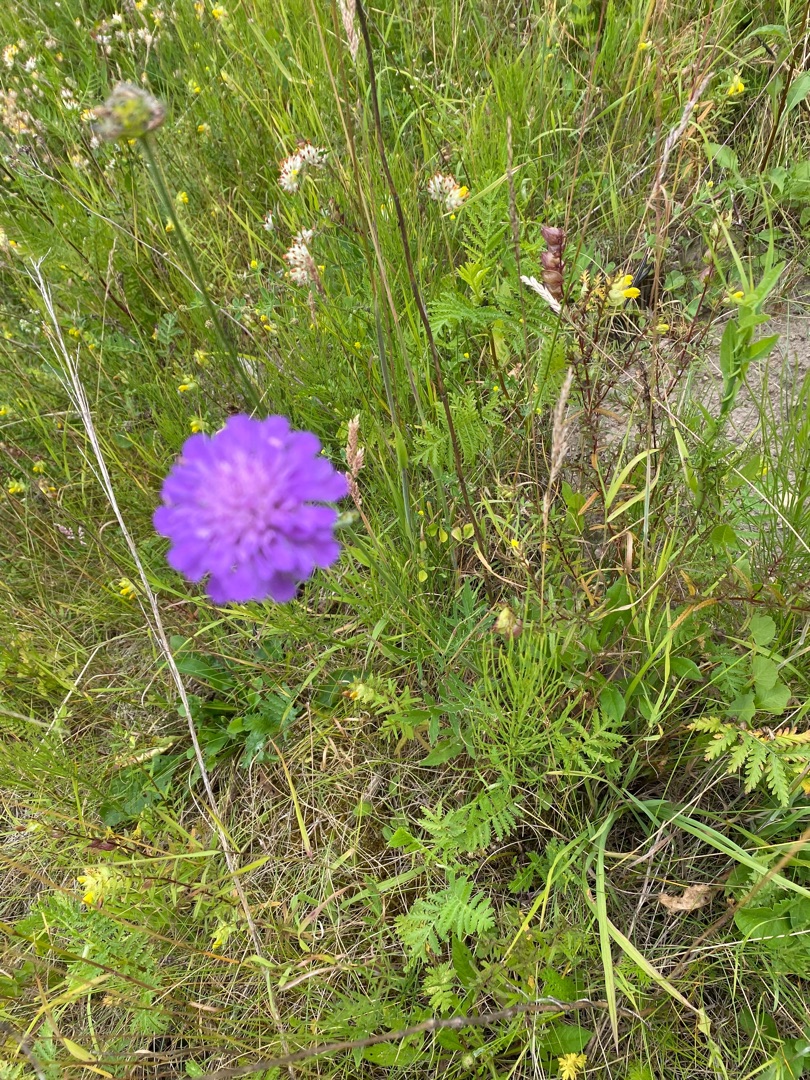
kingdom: Plantae
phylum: Tracheophyta
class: Magnoliopsida
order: Dipsacales
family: Caprifoliaceae
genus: Knautia
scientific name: Knautia arvensis
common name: Blåhat
